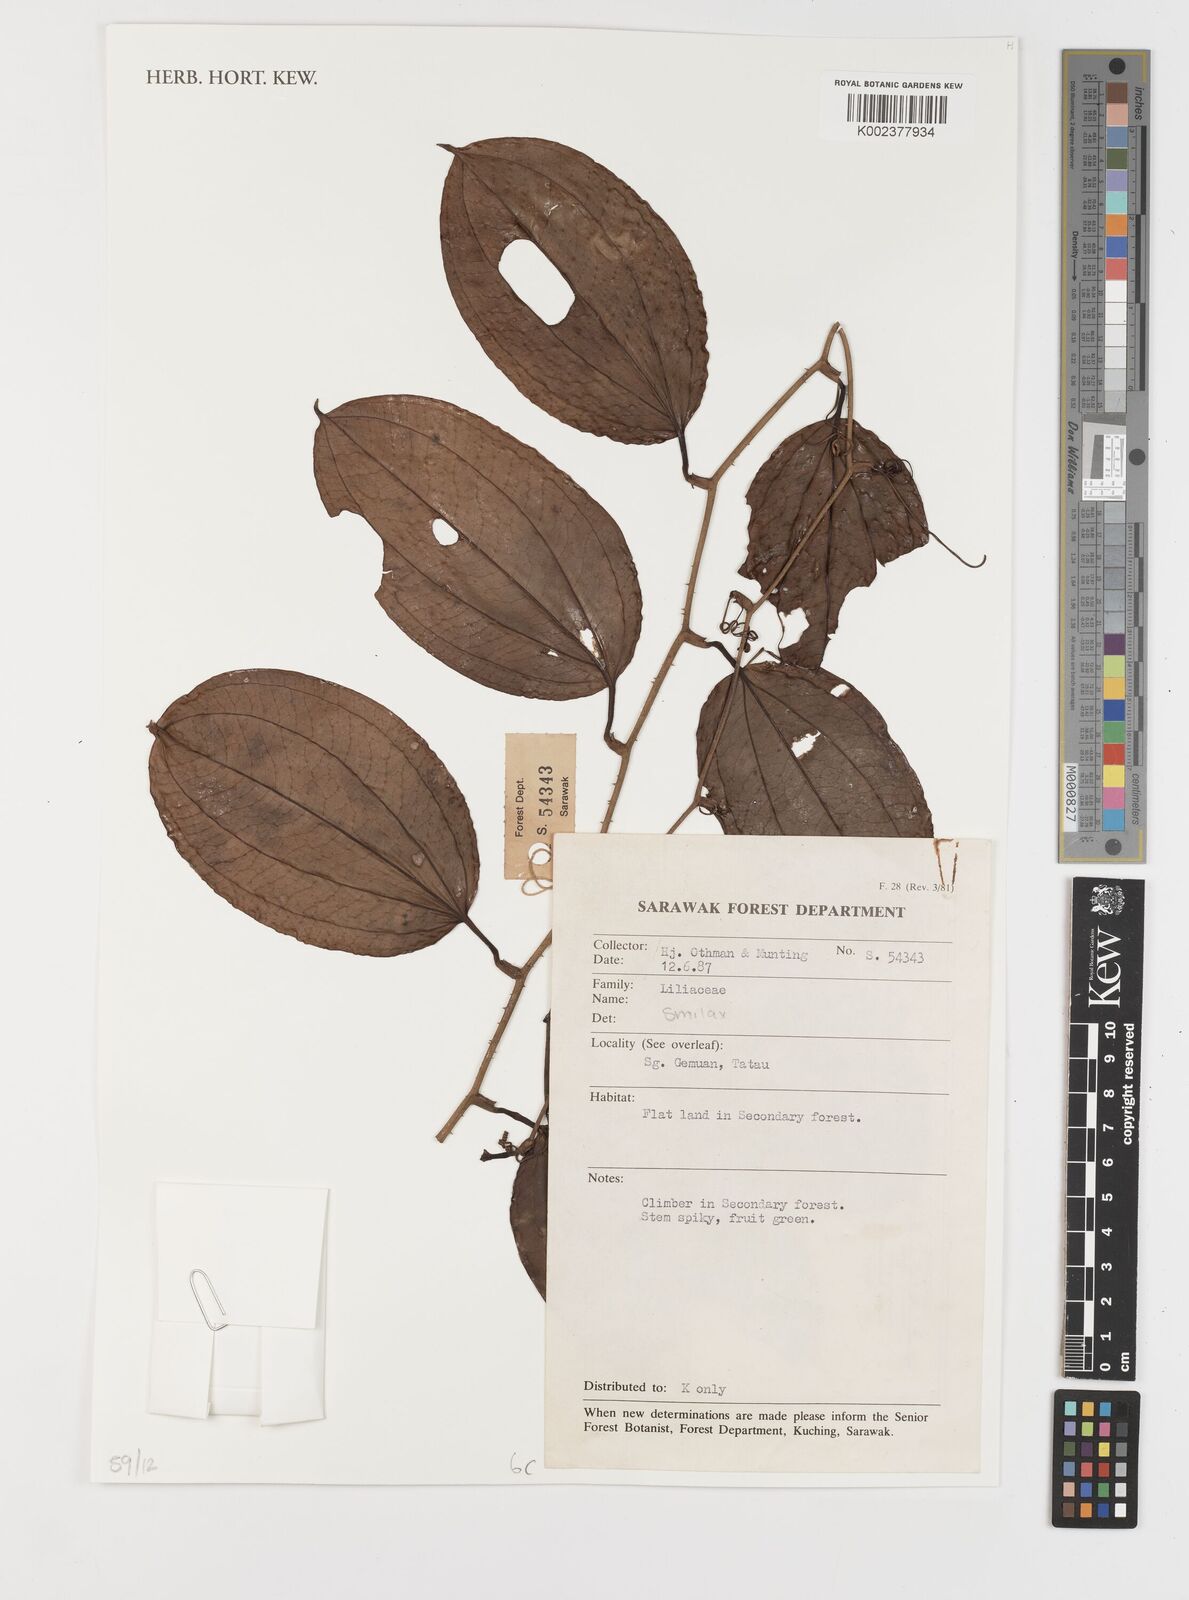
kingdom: Plantae
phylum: Tracheophyta
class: Liliopsida
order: Liliales
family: Smilacaceae
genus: Smilax
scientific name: Smilax
